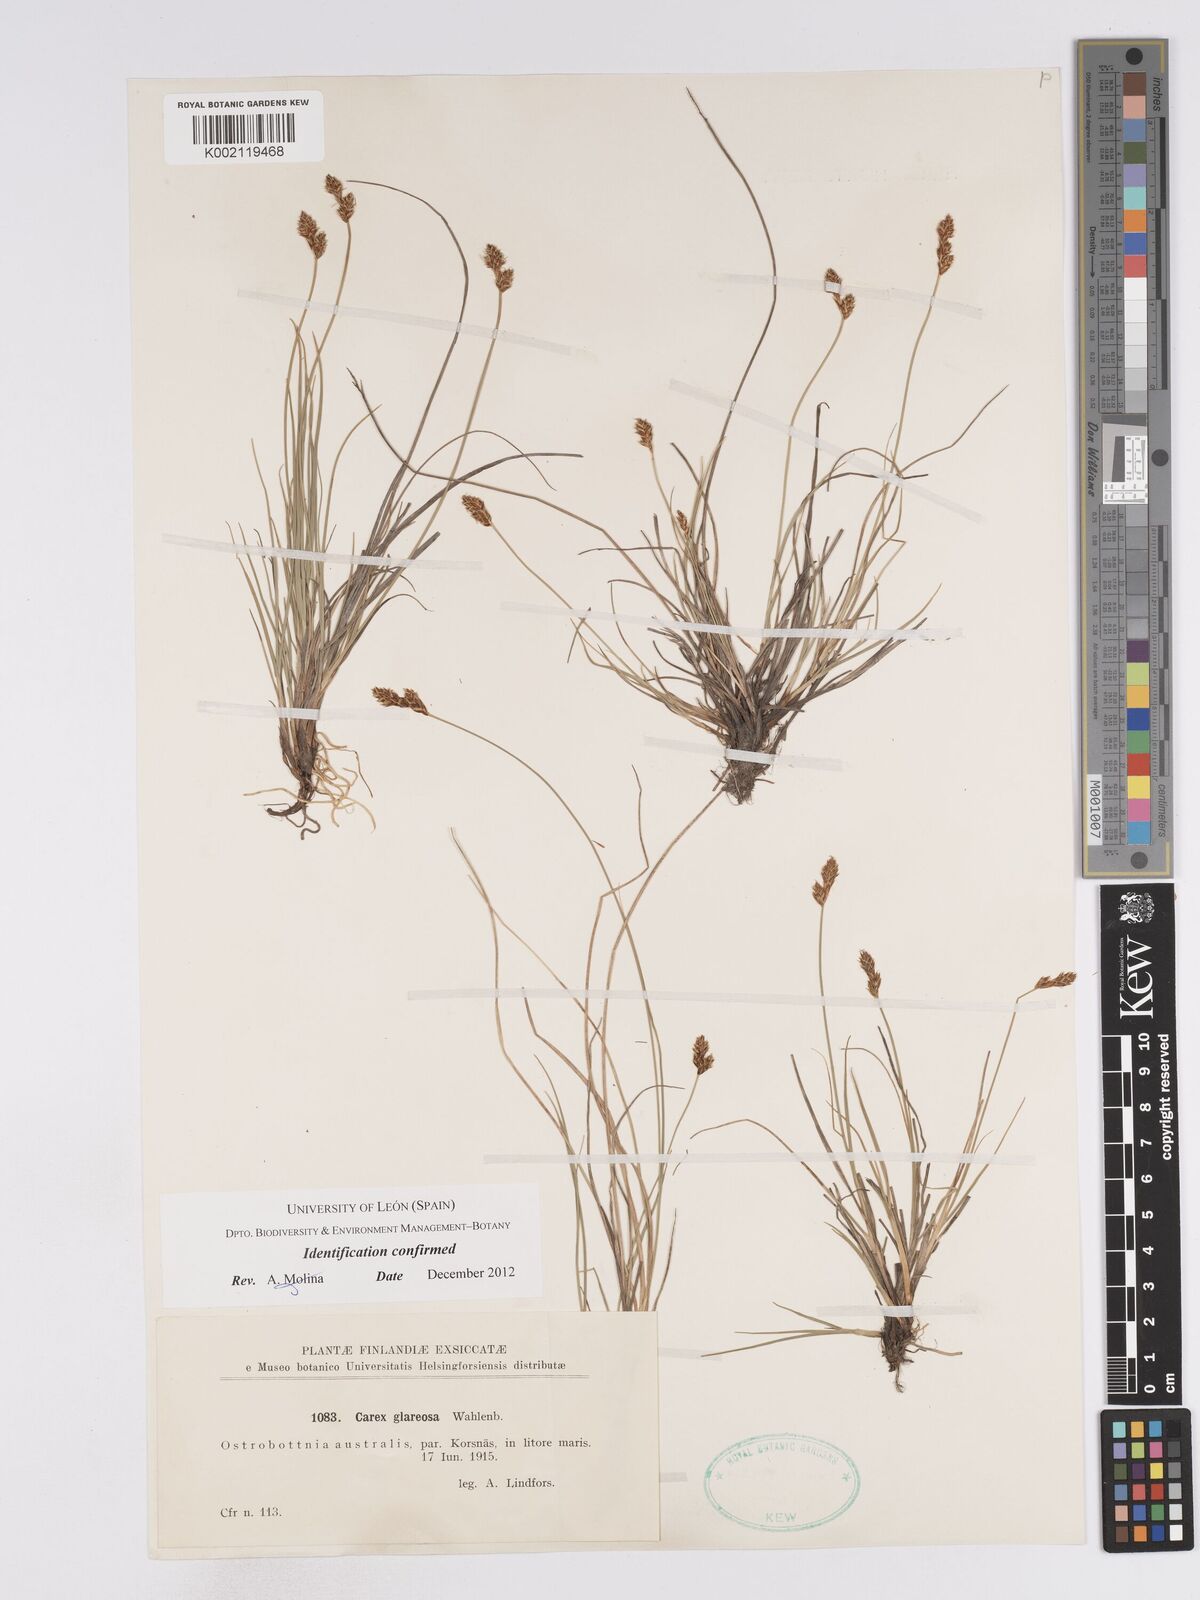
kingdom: Plantae
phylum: Tracheophyta
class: Liliopsida
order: Poales
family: Cyperaceae
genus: Carex
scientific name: Carex glareosa
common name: Clustered sedge
